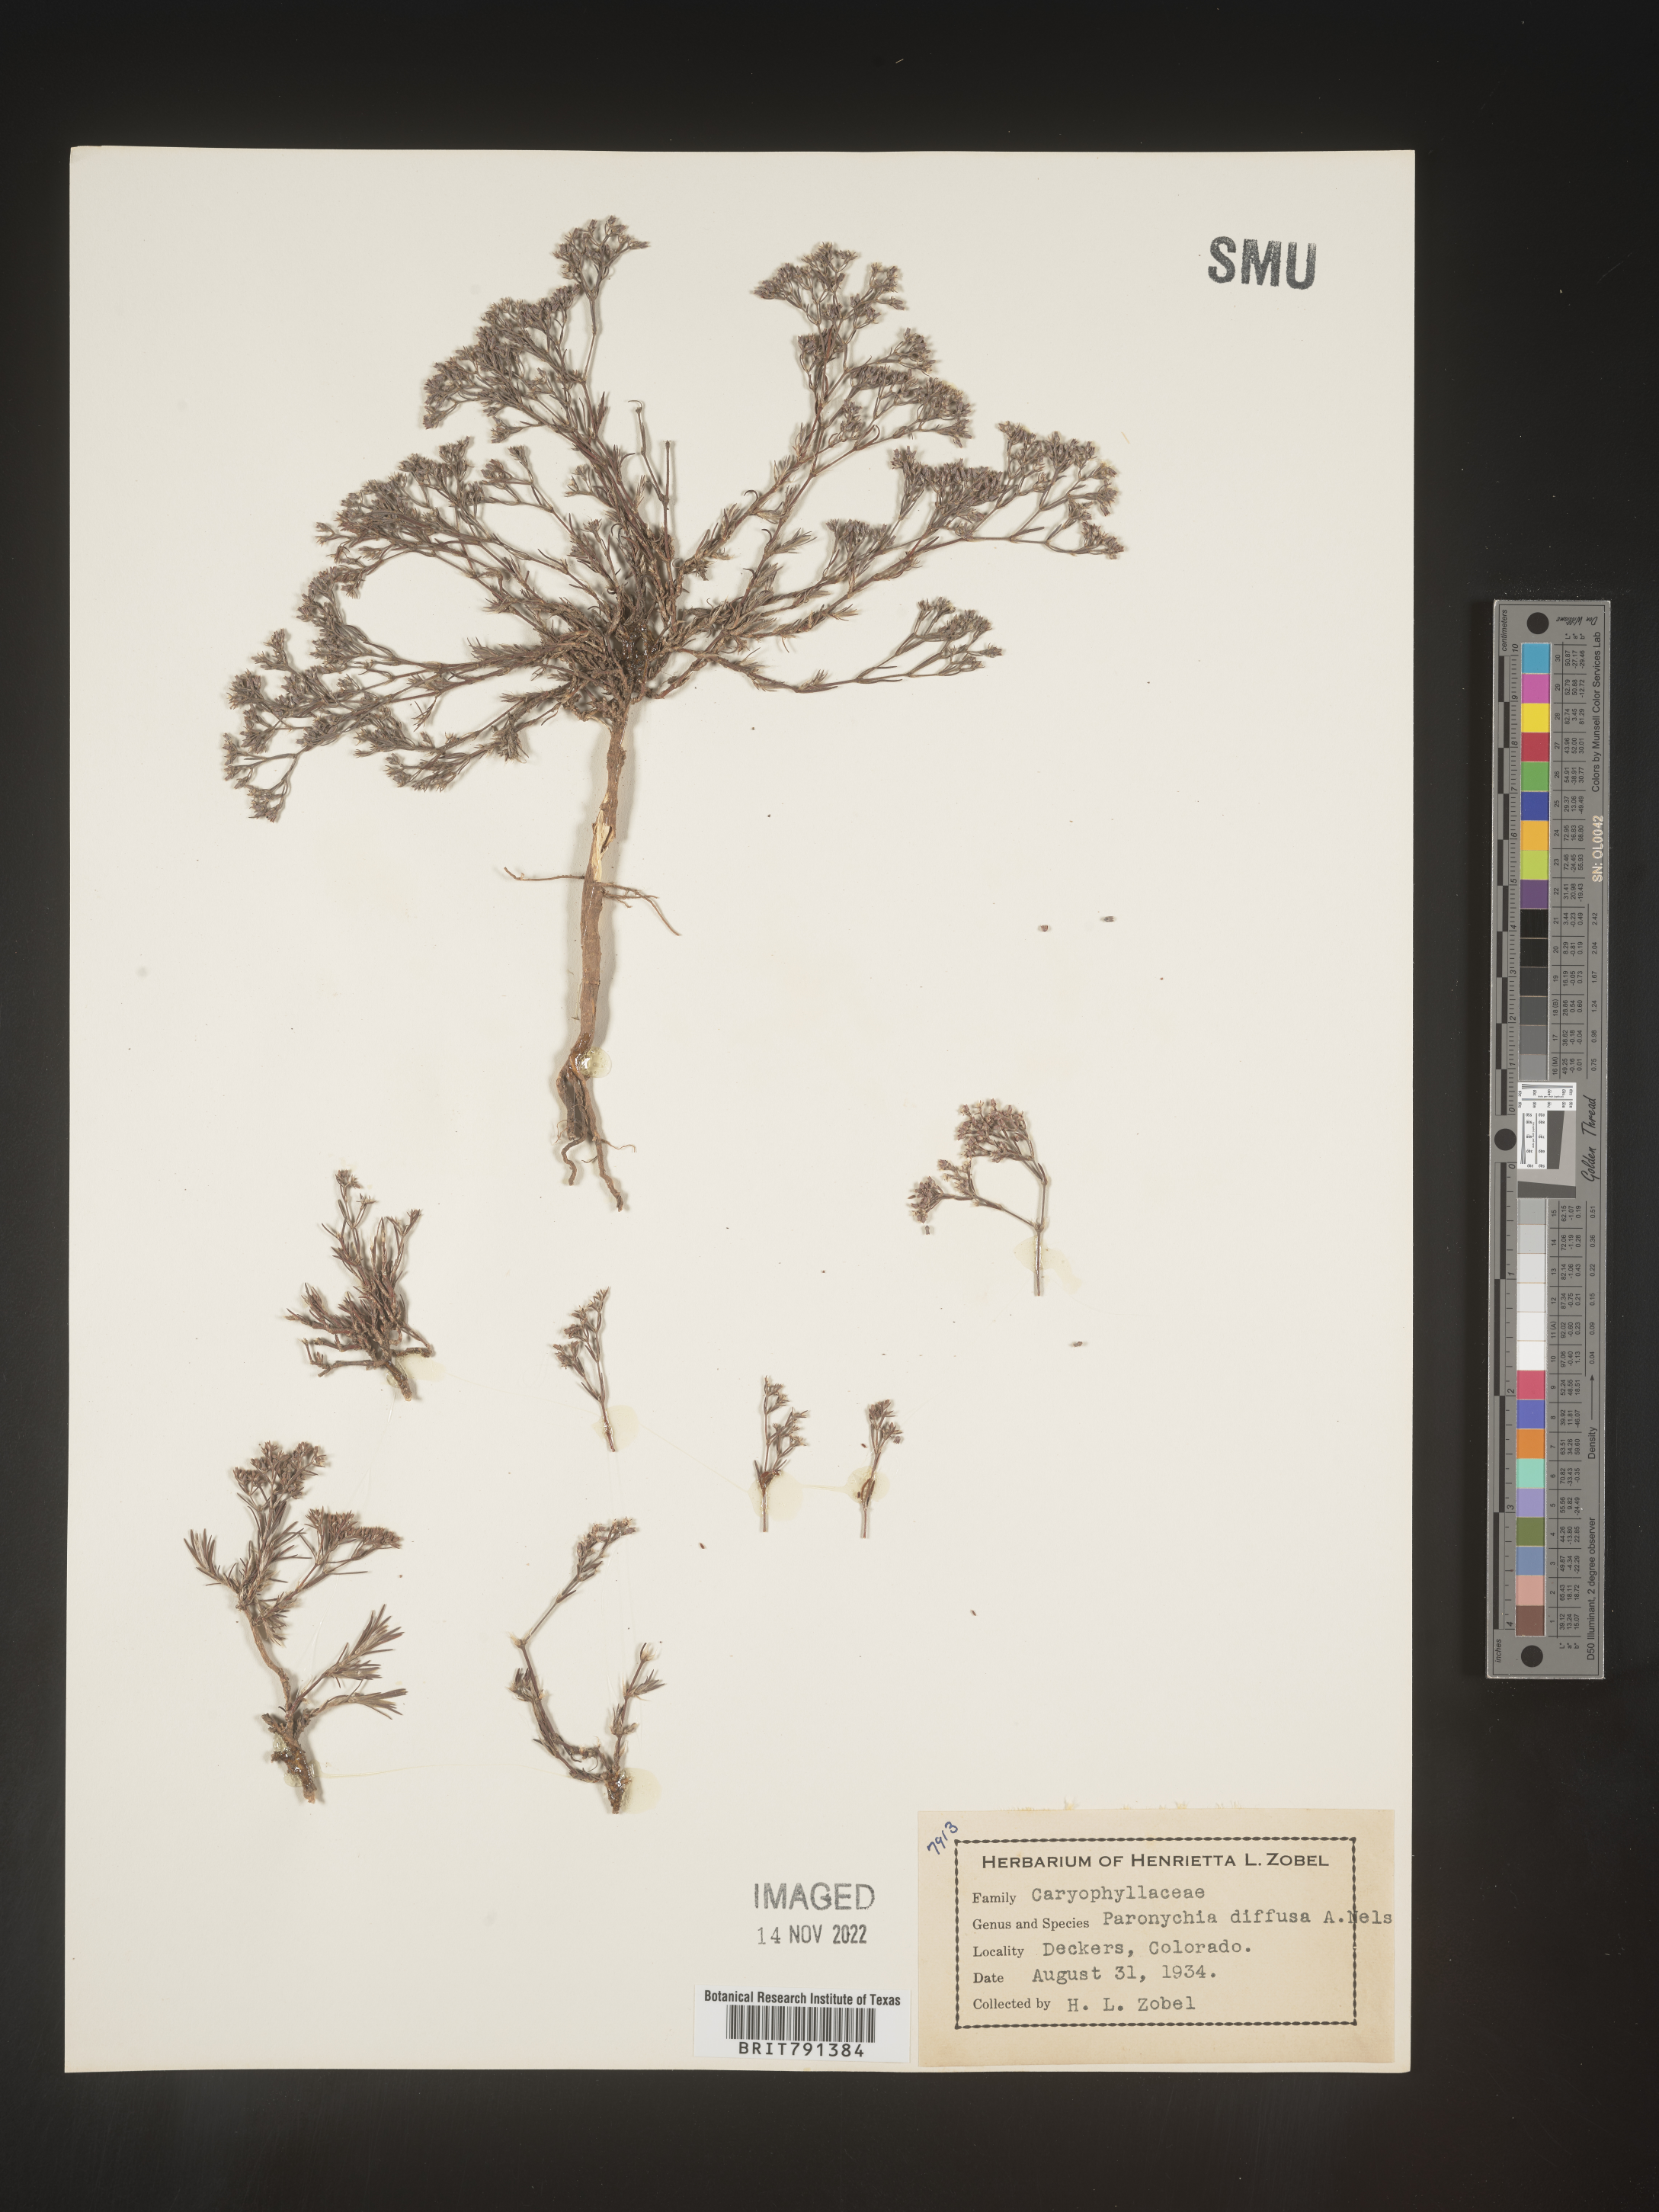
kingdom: Plantae
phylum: Tracheophyta
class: Magnoliopsida
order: Caryophyllales
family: Caryophyllaceae
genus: Paronychia
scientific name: Paronychia
